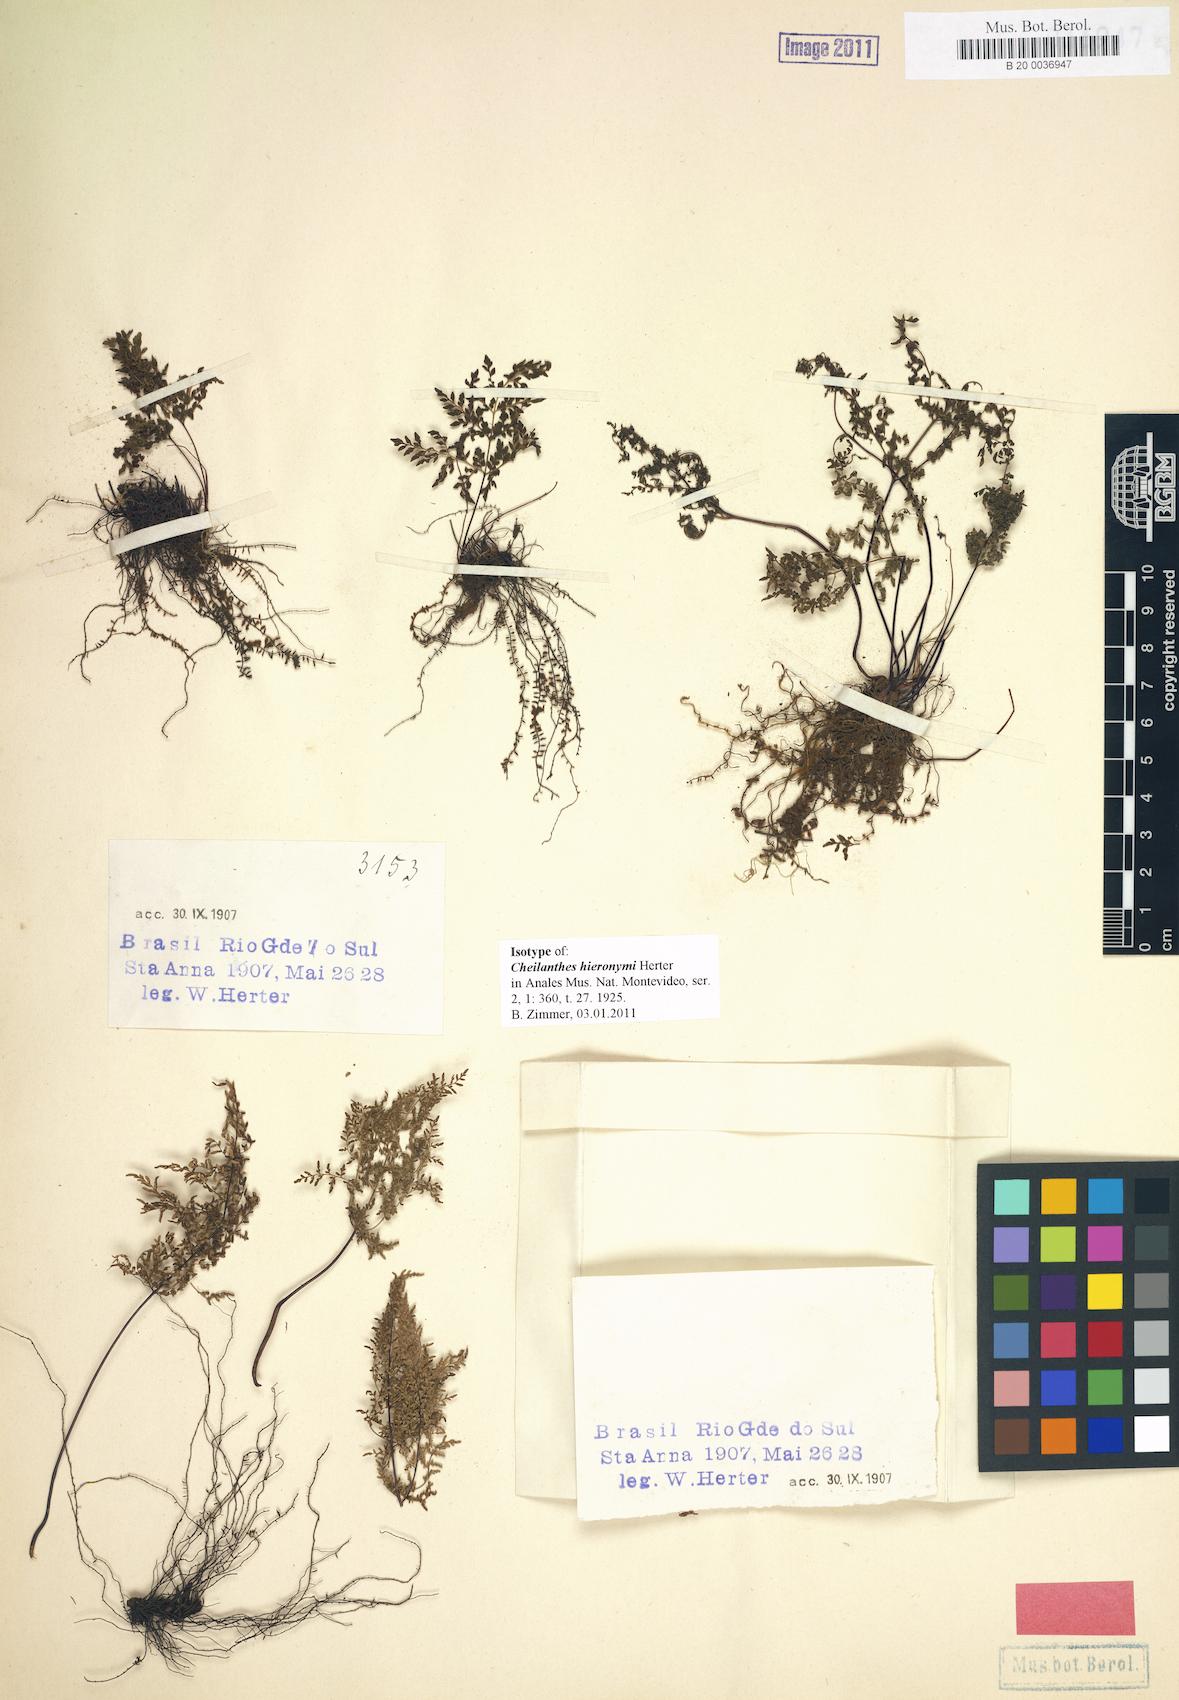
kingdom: Plantae
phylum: Tracheophyta
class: Polypodiopsida
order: Polypodiales
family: Pteridaceae
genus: Cheilanthes
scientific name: Cheilanthes hieronymi
